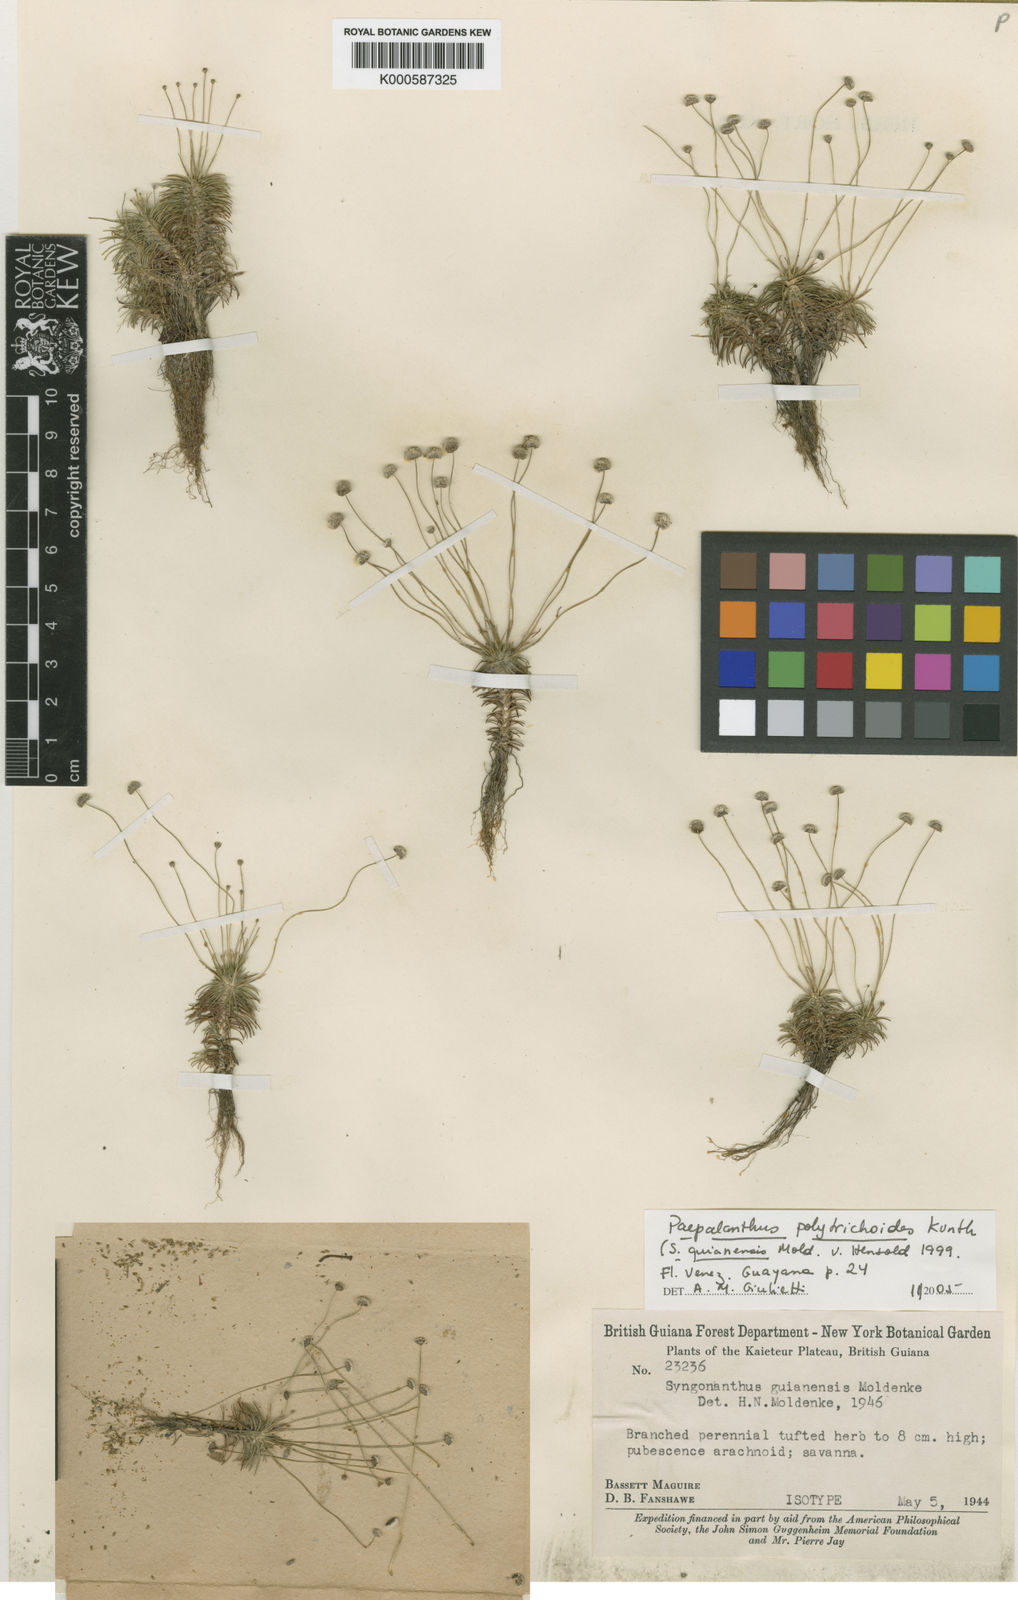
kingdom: Plantae
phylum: Tracheophyta
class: Liliopsida
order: Poales
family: Eriocaulaceae
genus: Paepalanthus
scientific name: Paepalanthus polytrichoides
